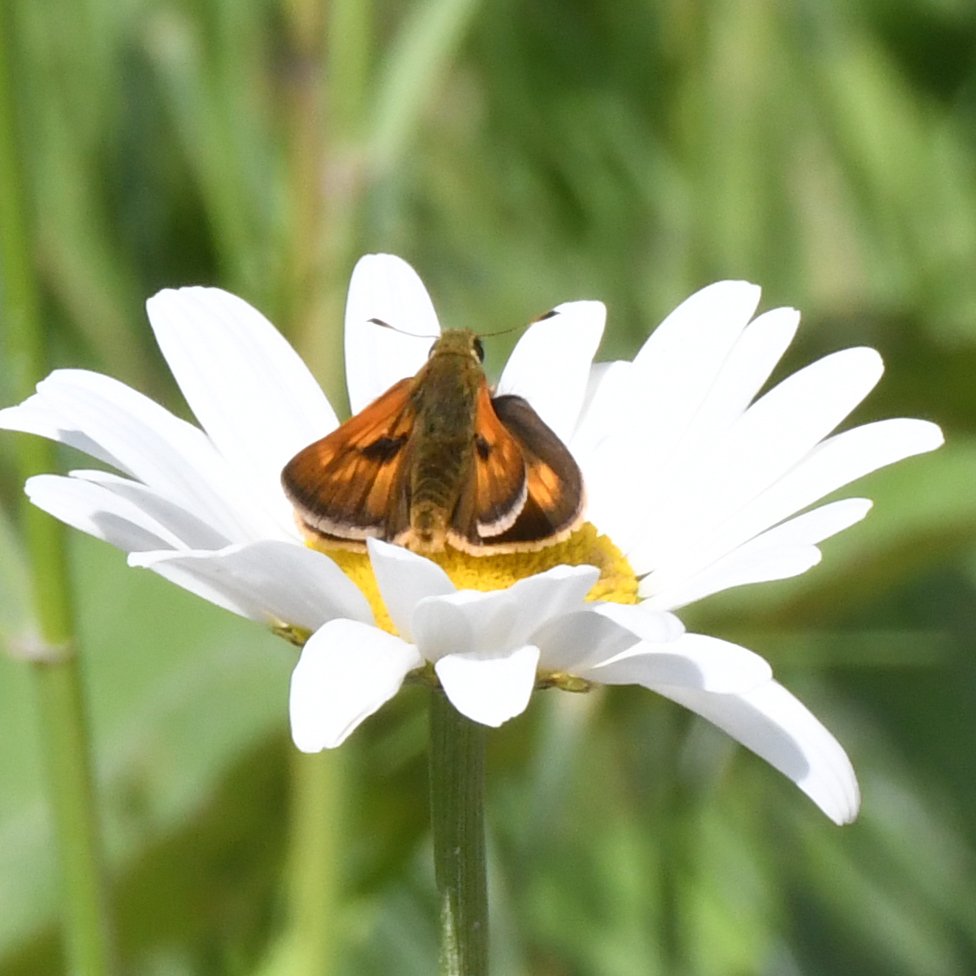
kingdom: Animalia
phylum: Arthropoda
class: Insecta
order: Lepidoptera
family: Hesperiidae
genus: Polites
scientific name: Polites
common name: Long Dash Skipper
